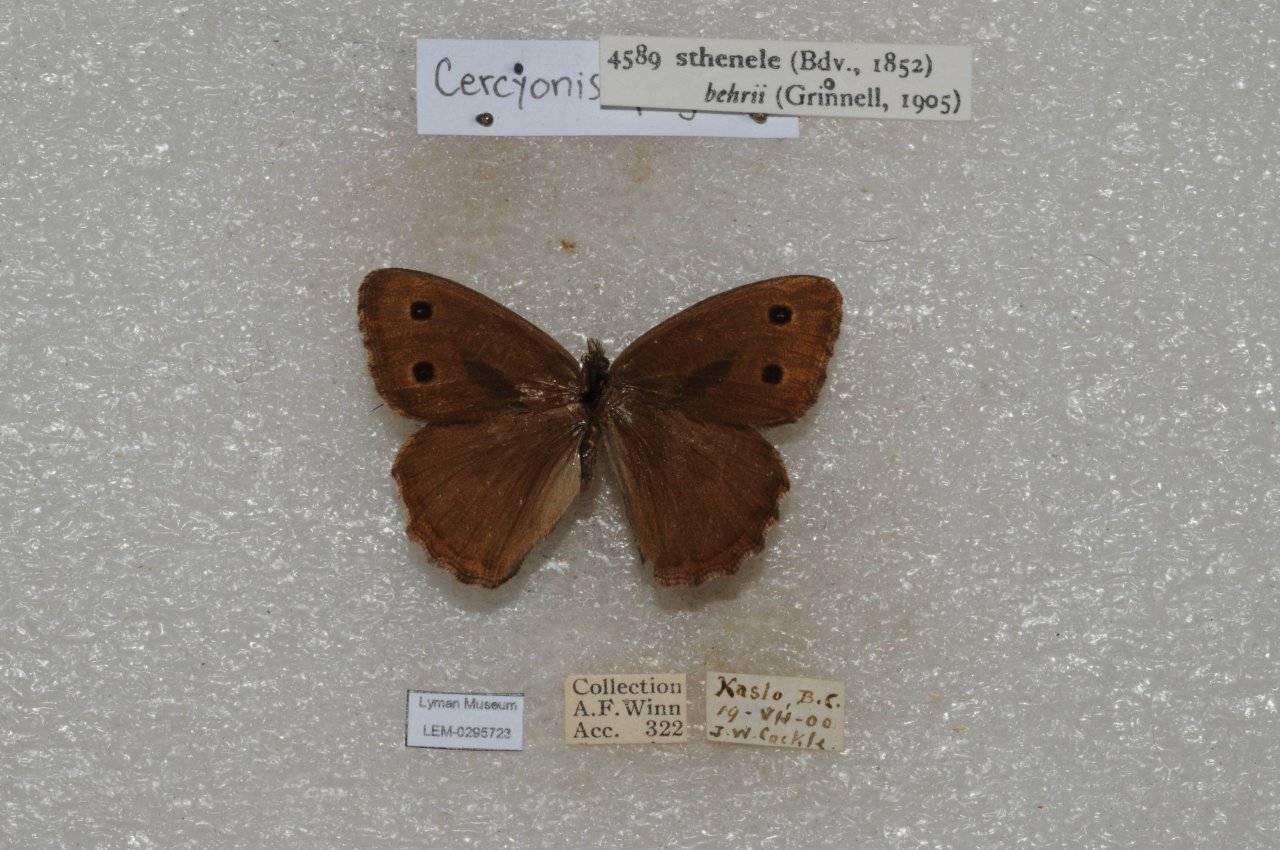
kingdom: Animalia
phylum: Arthropoda
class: Insecta
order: Lepidoptera
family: Nymphalidae
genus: Cercyonis
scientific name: Cercyonis sthenele
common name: Great Basin Wood-Nymph
